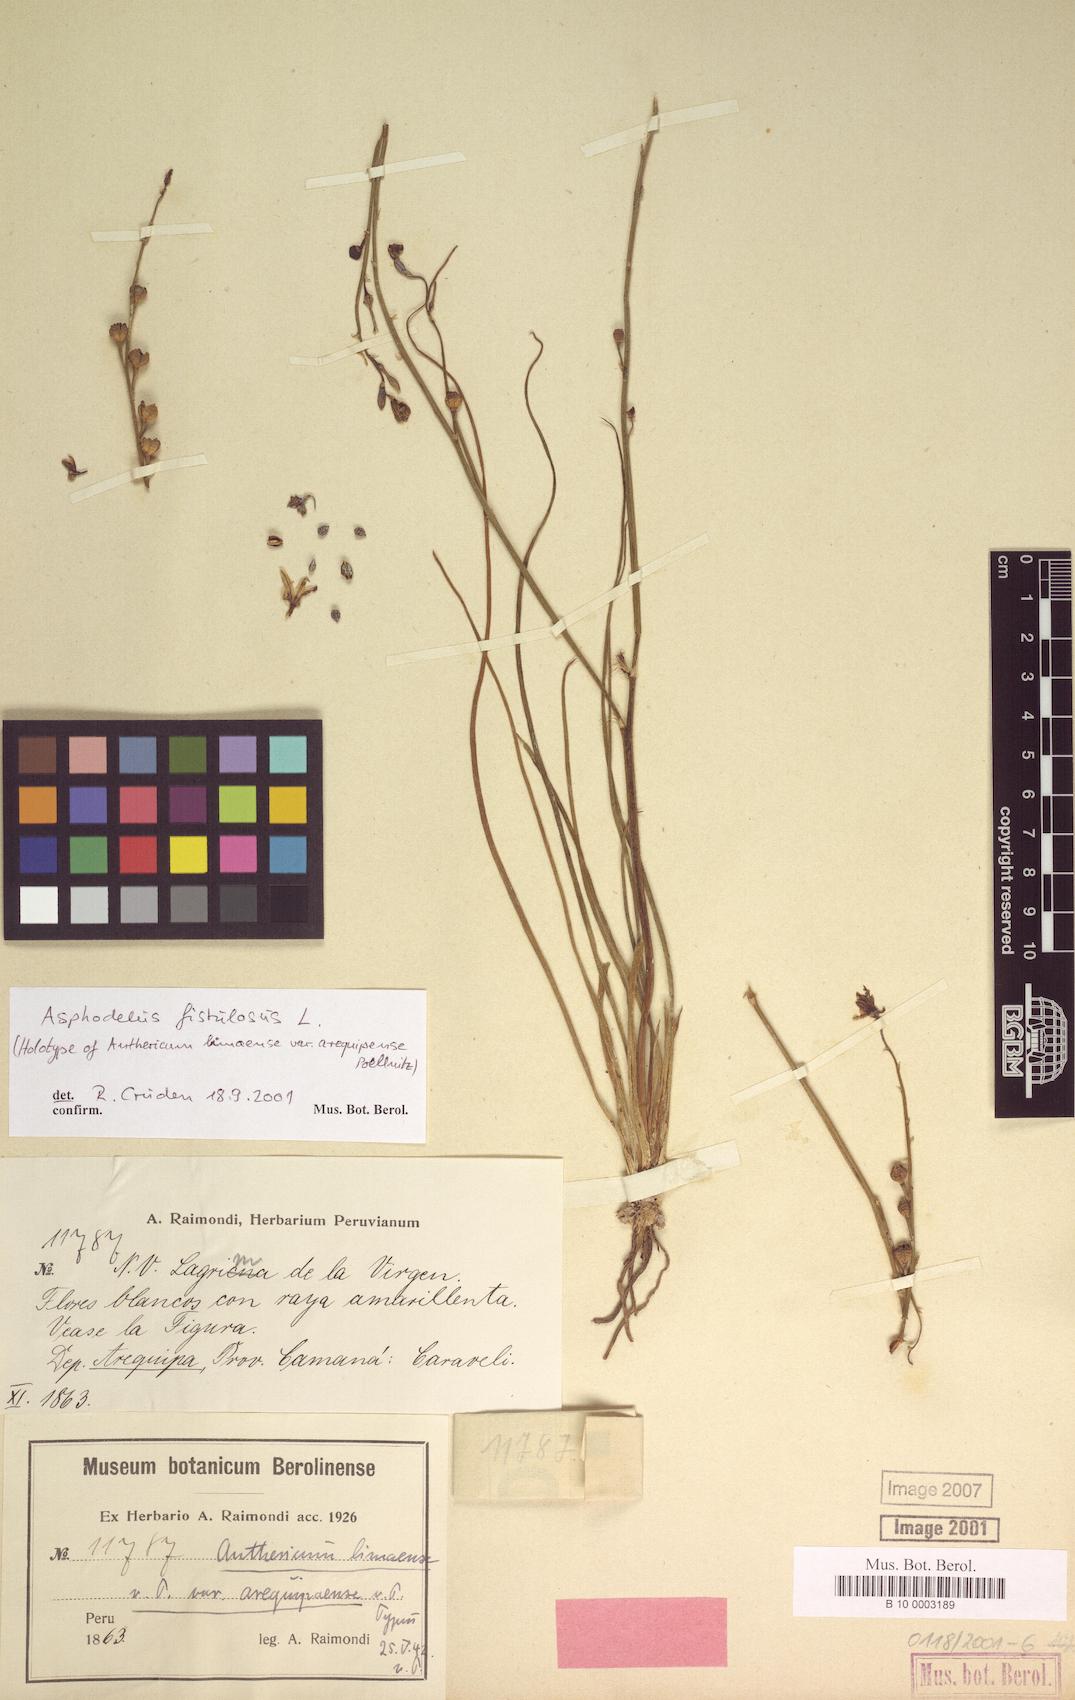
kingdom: Plantae
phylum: Tracheophyta
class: Liliopsida
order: Asparagales
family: Asparagaceae
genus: Oziroe
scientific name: Oziroe biflora
